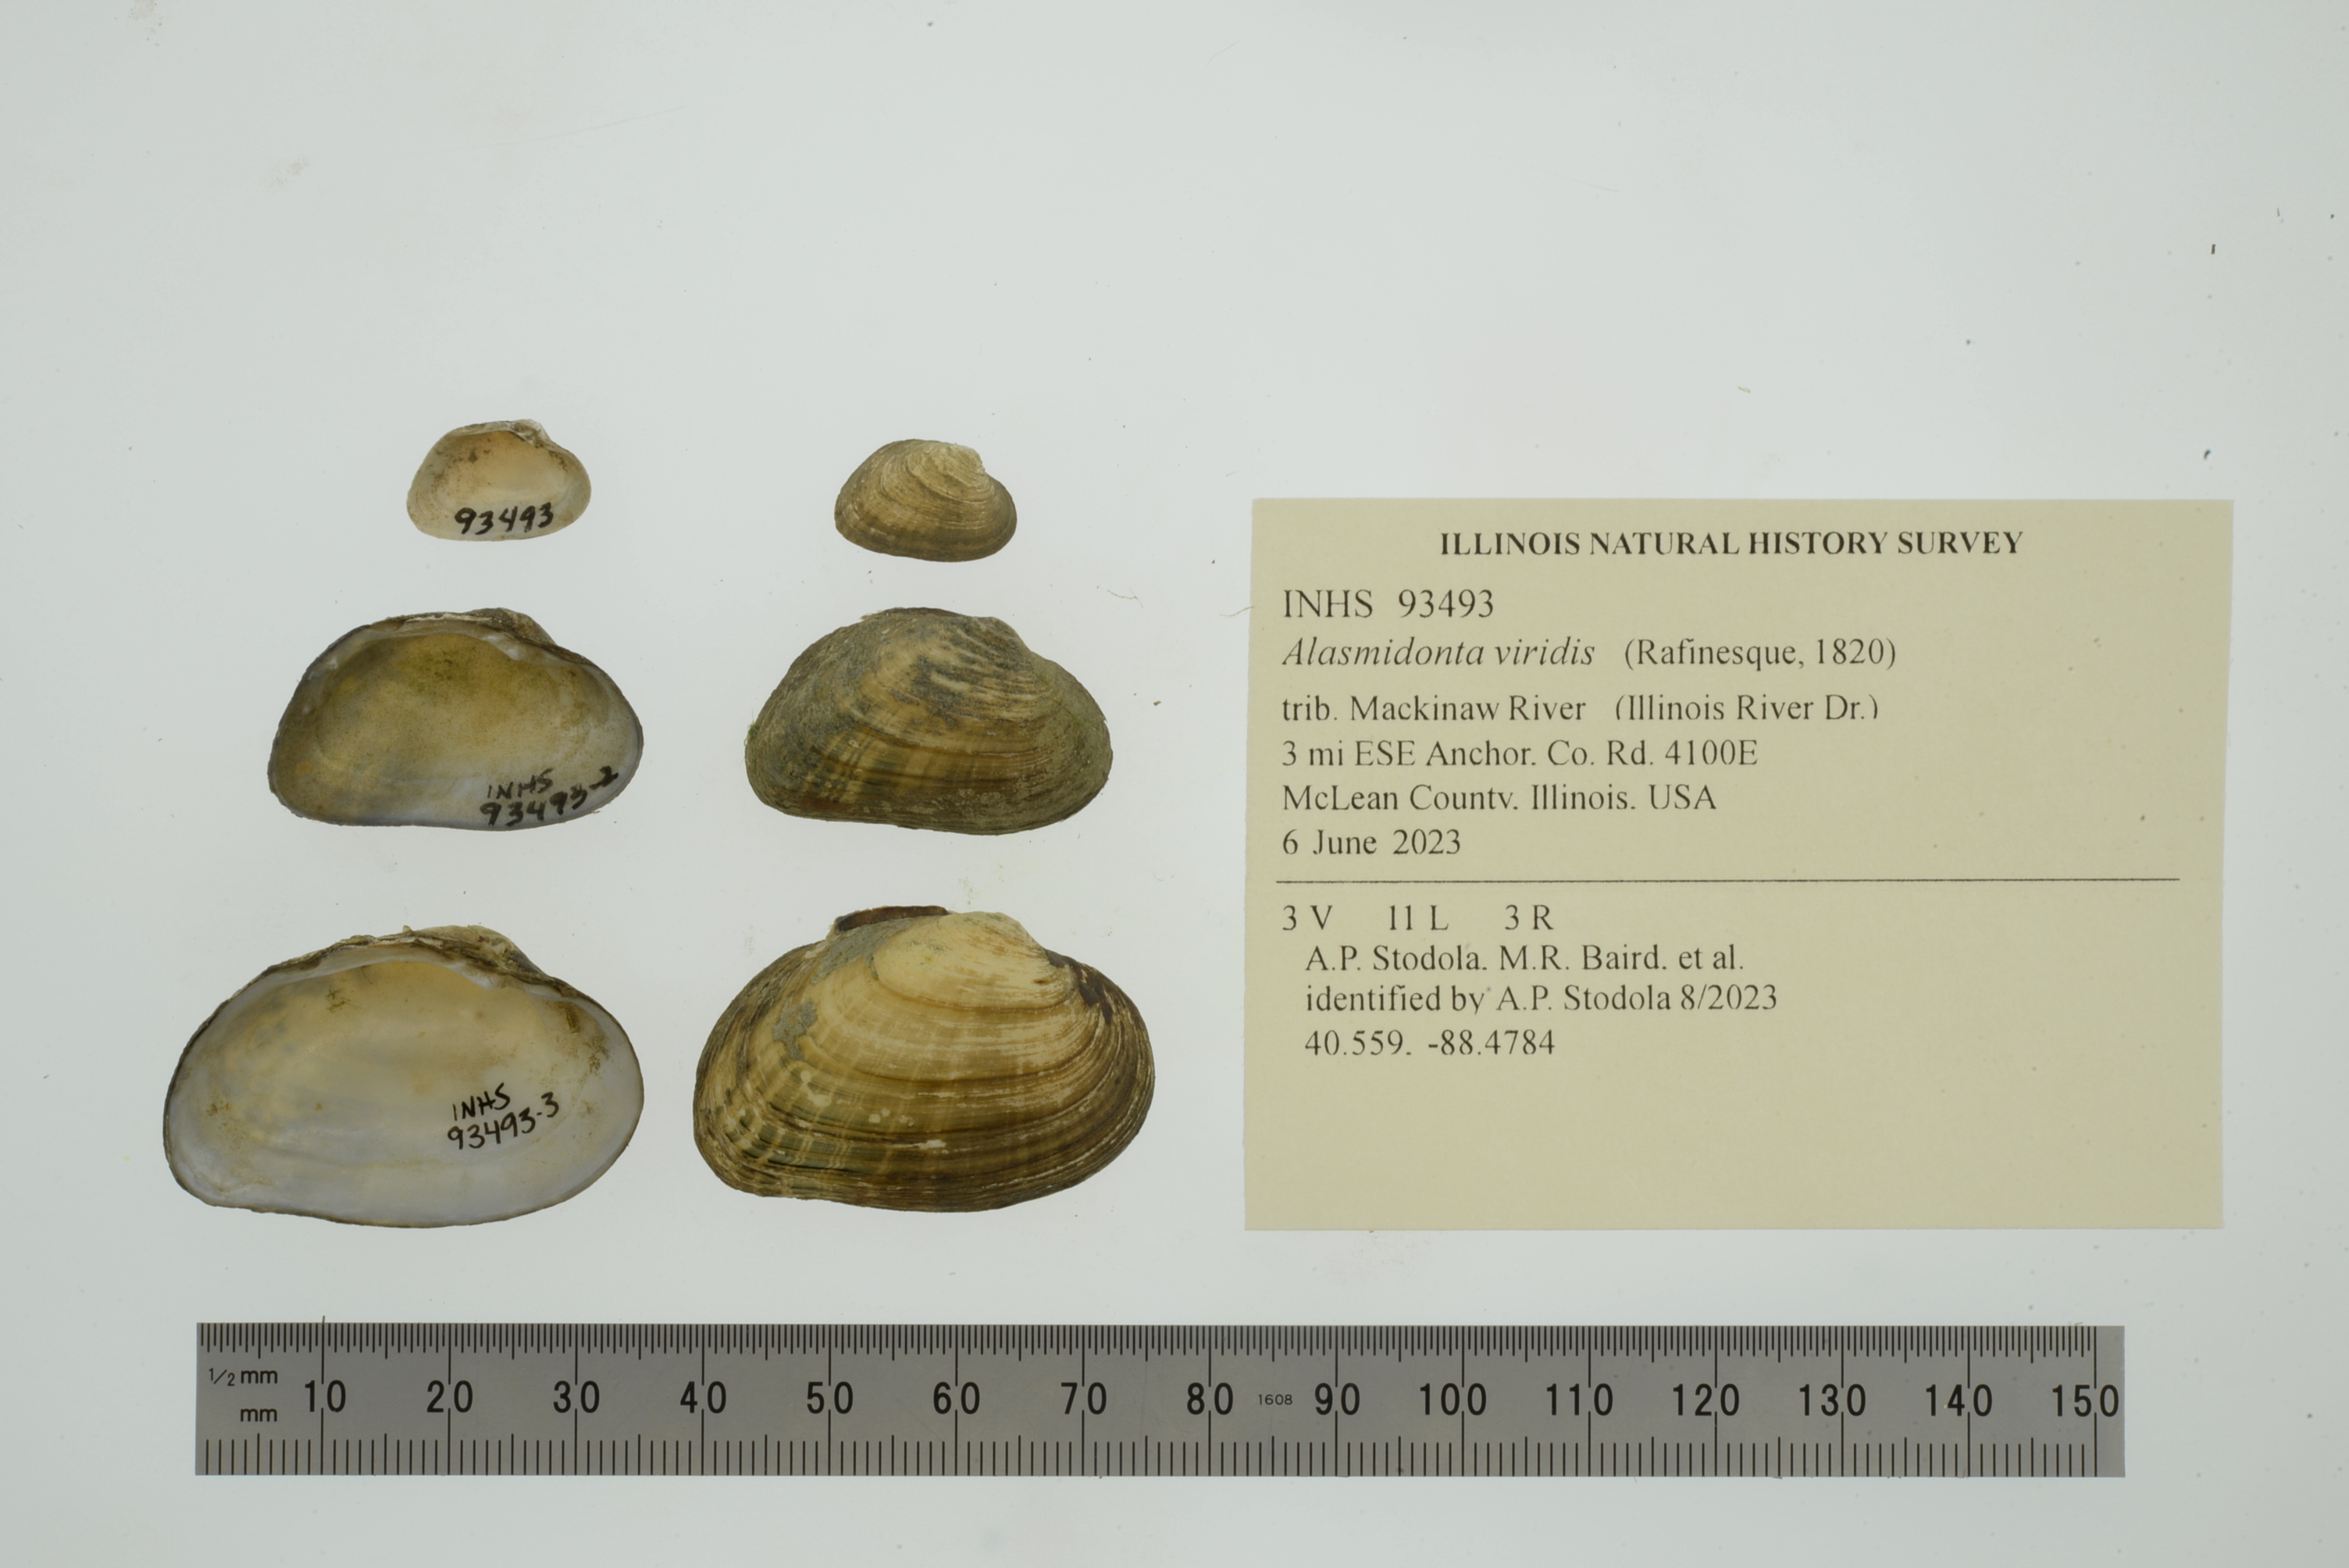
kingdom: Animalia
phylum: Mollusca
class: Bivalvia
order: Unionida
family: Unionidae
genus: Alasmidonta
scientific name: Alasmidonta viridis
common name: Slippershell mussel
